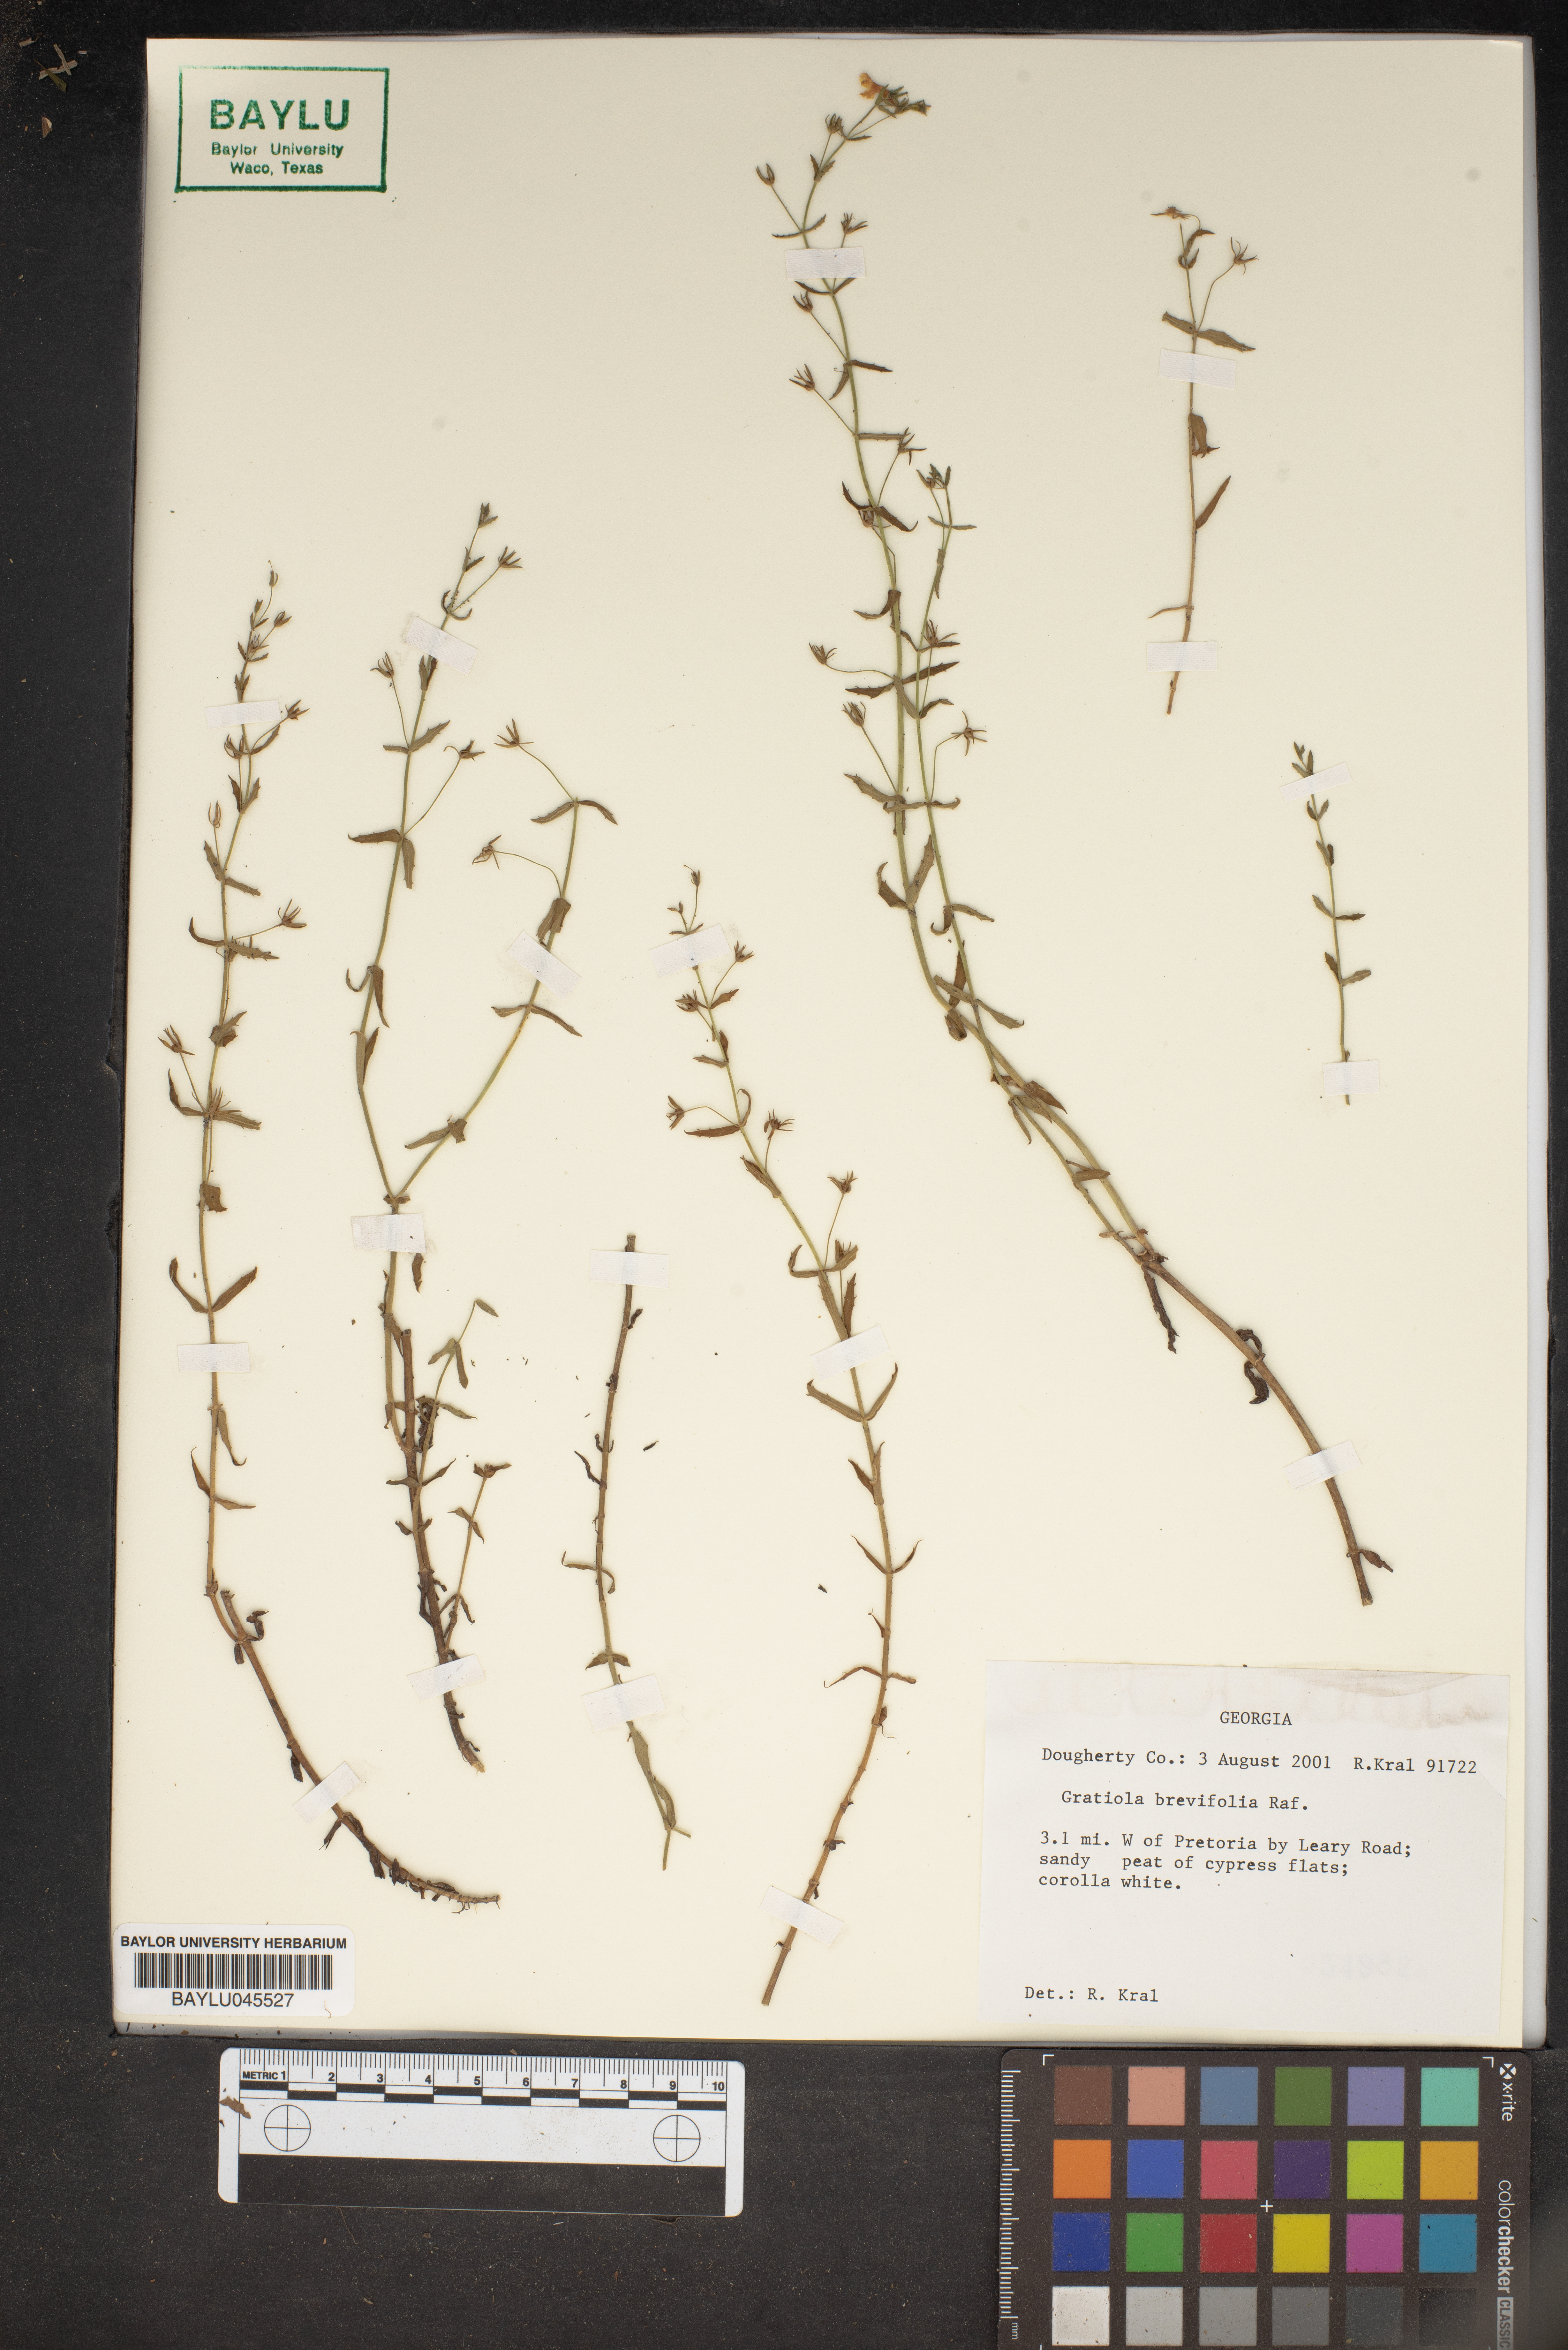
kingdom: Plantae
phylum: Tracheophyta
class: Magnoliopsida
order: Lamiales
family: Plantaginaceae
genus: Gratiola
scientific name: Gratiola brevifolia
